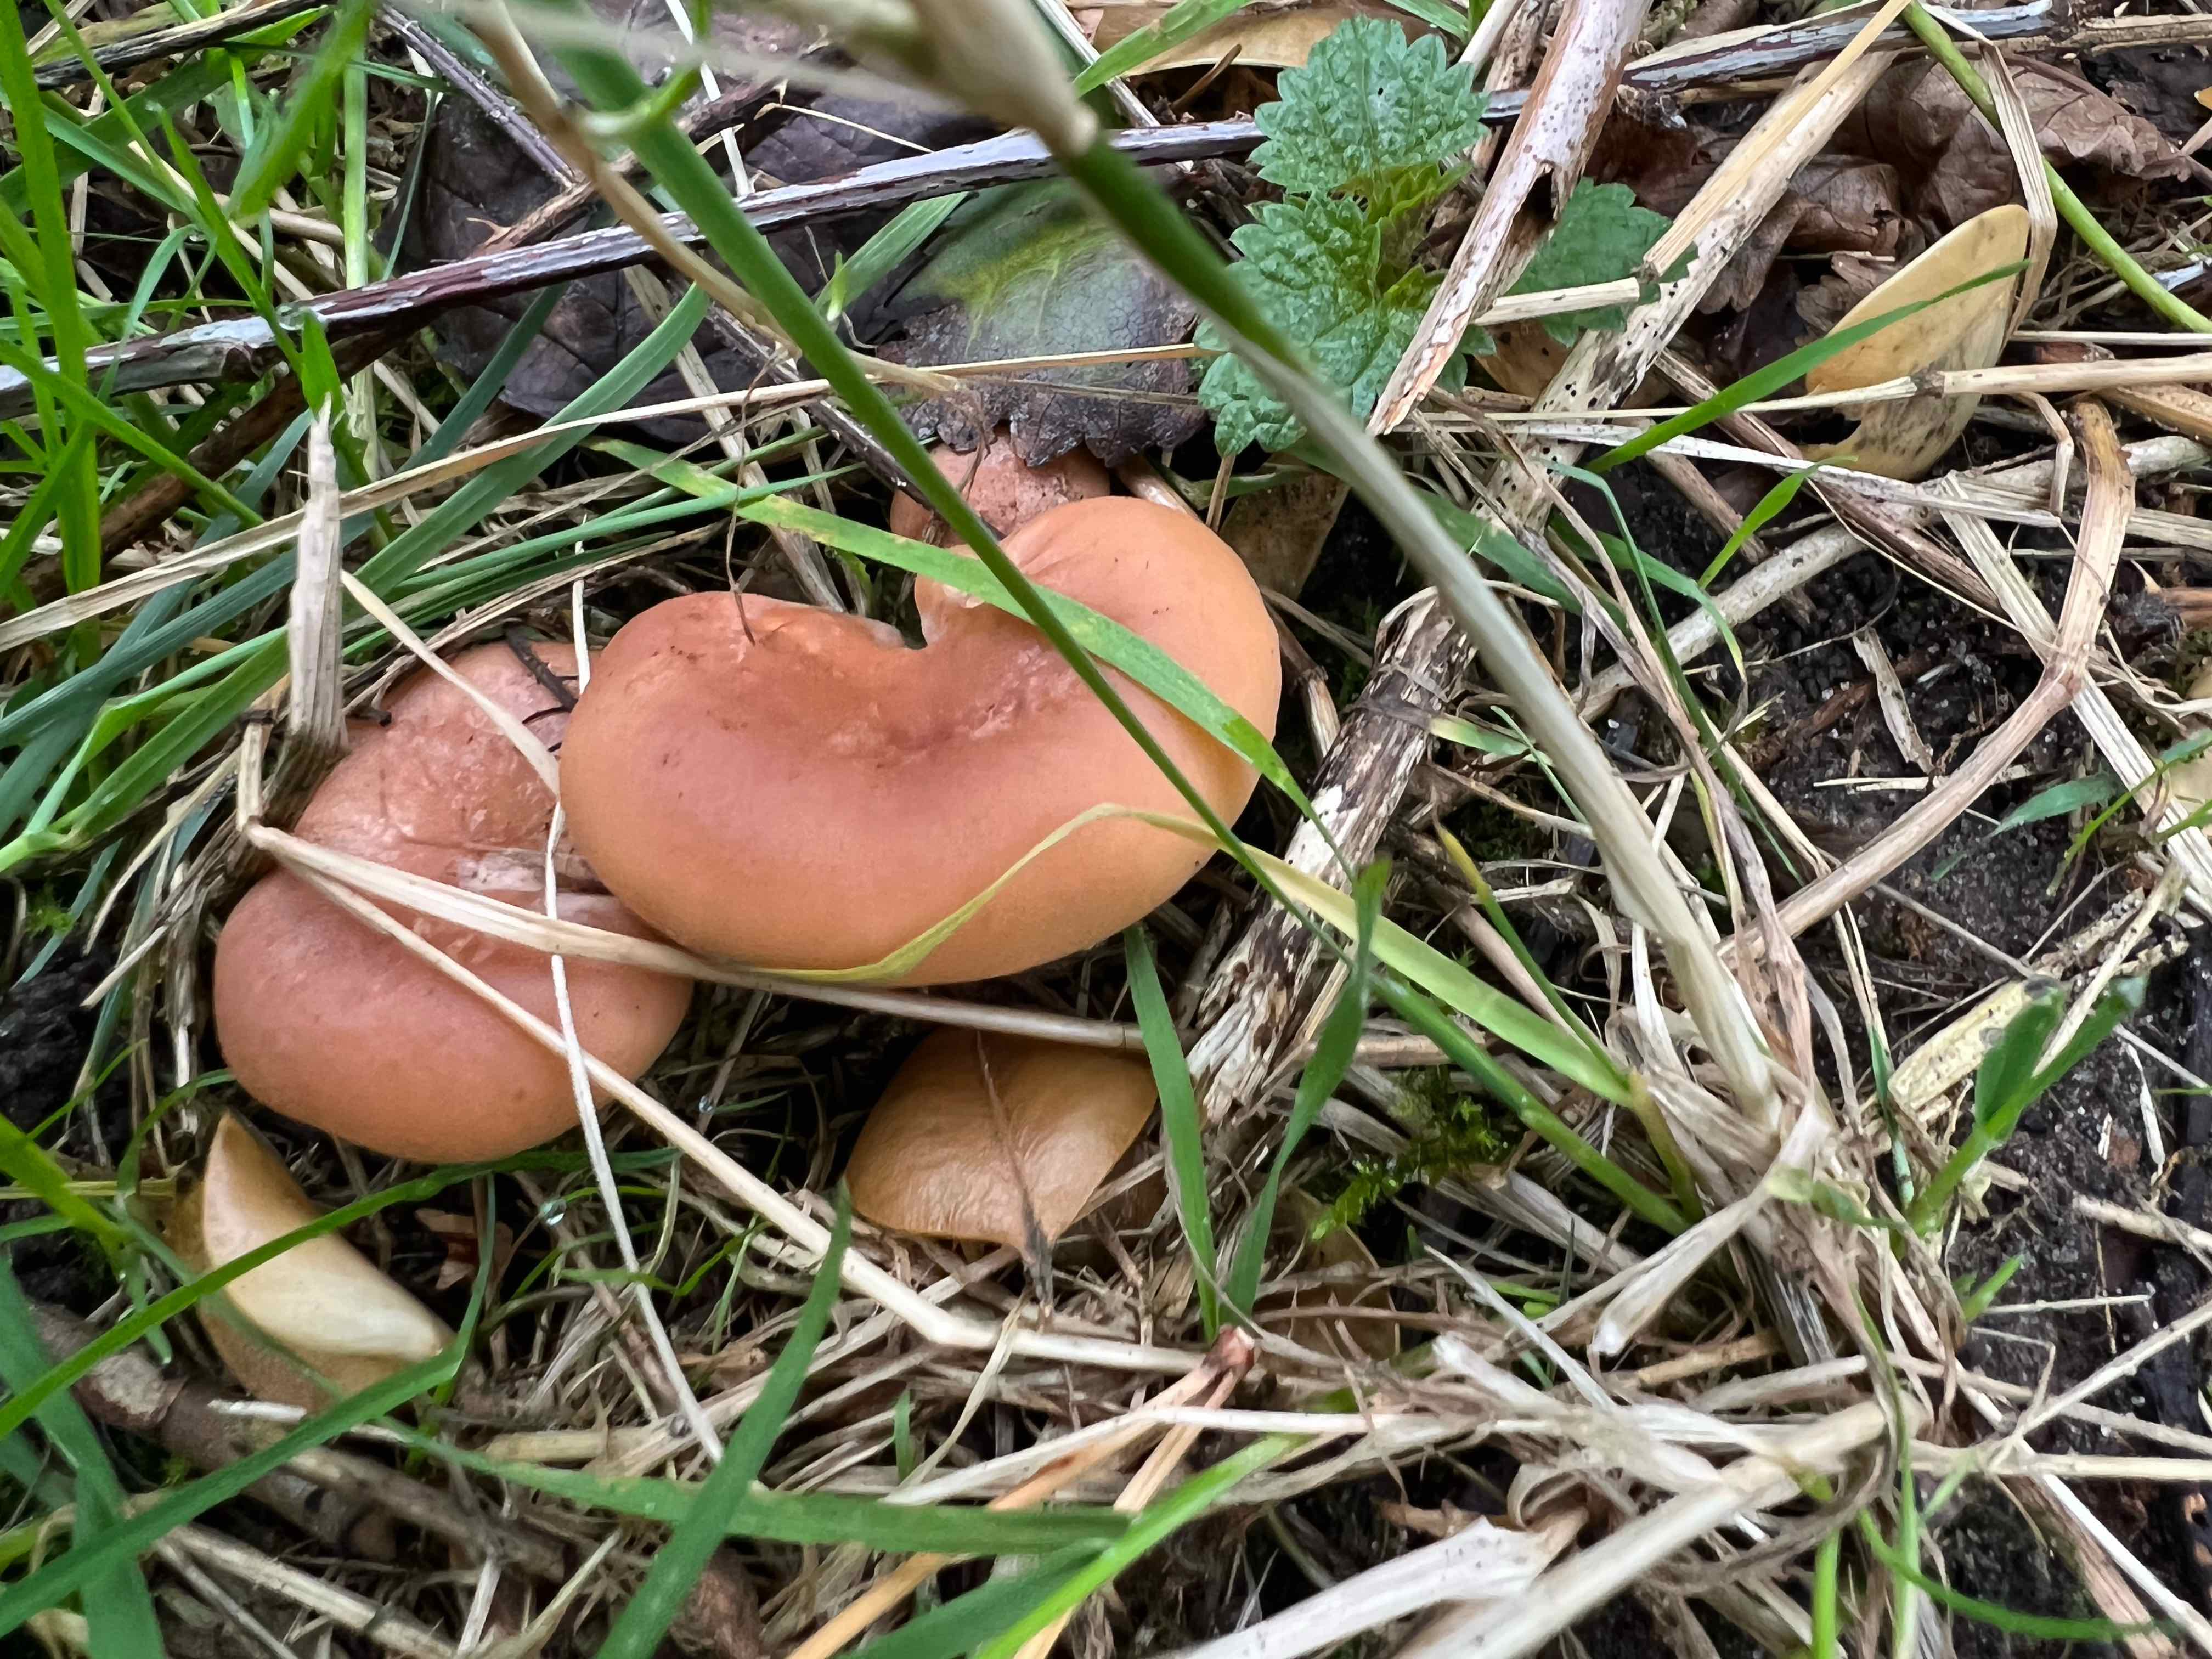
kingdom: Fungi
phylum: Basidiomycota
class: Agaricomycetes
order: Agaricales
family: Tricholomataceae
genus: Paralepista
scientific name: Paralepista flaccida
